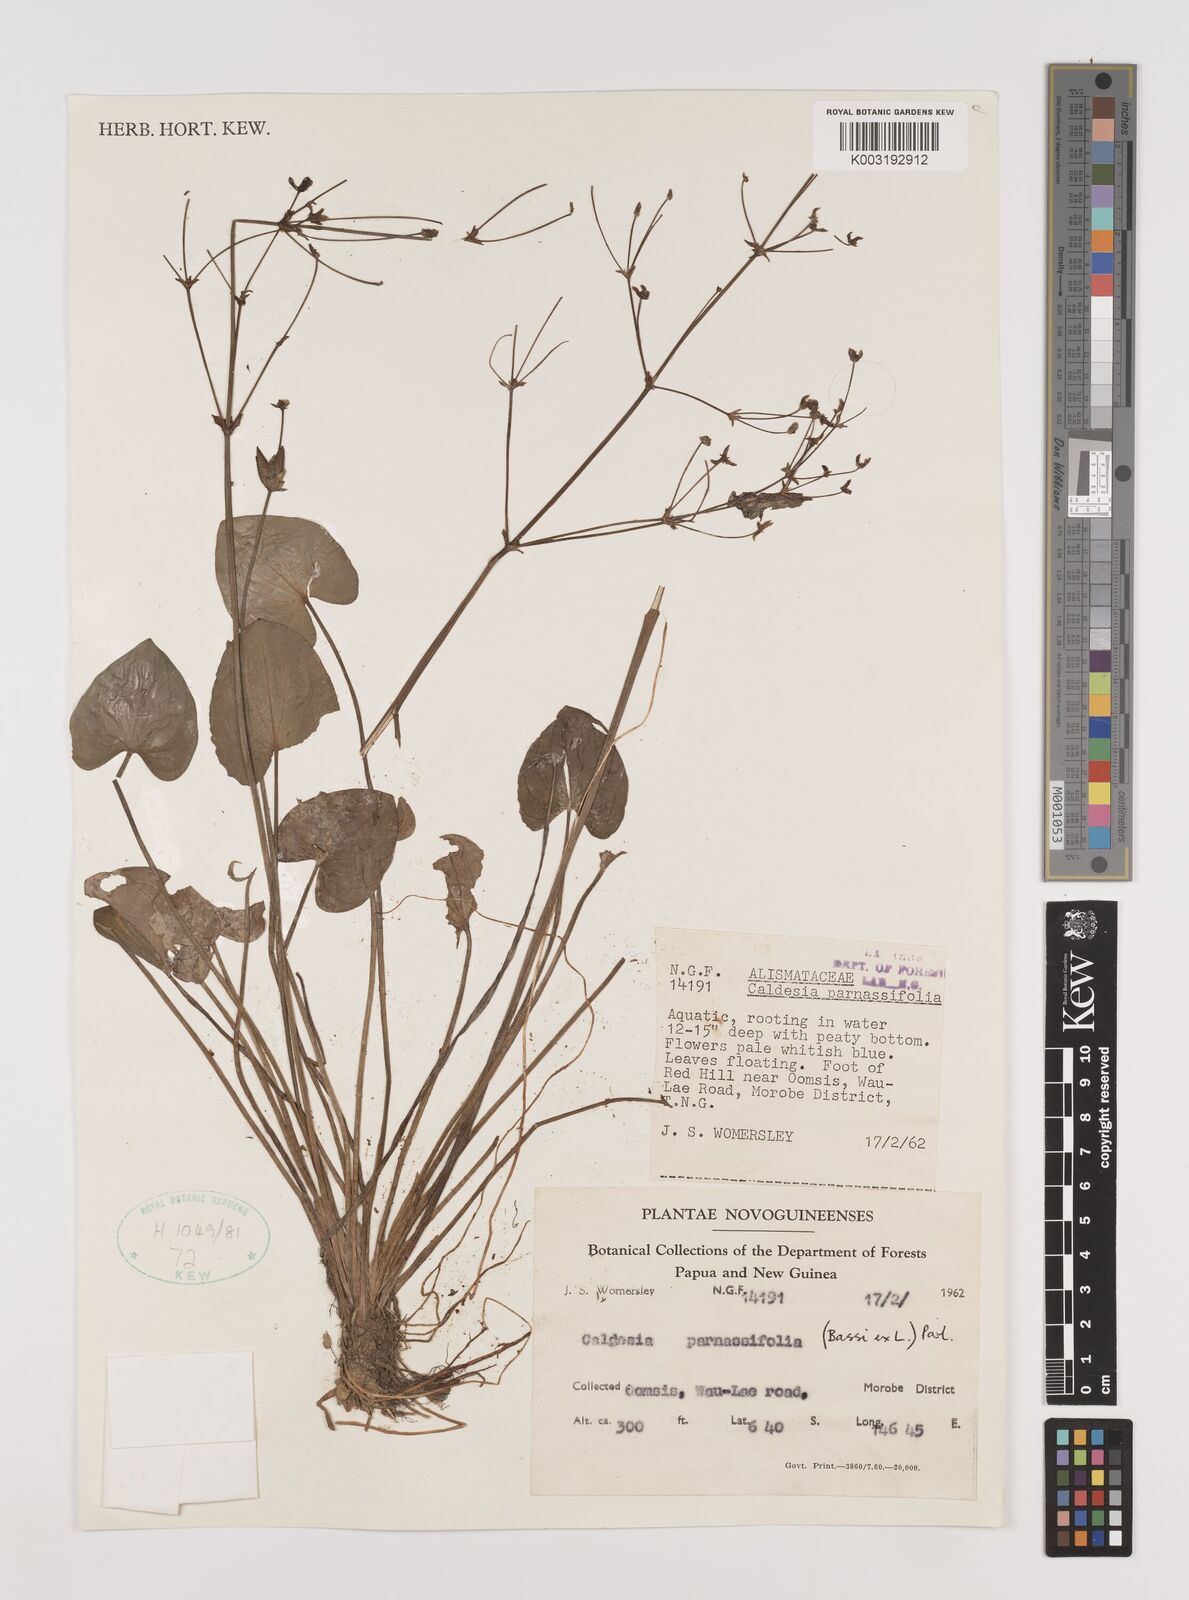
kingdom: Plantae
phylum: Tracheophyta
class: Liliopsida
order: Alismatales
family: Alismataceae
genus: Caldesia
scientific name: Caldesia parnassifolia
